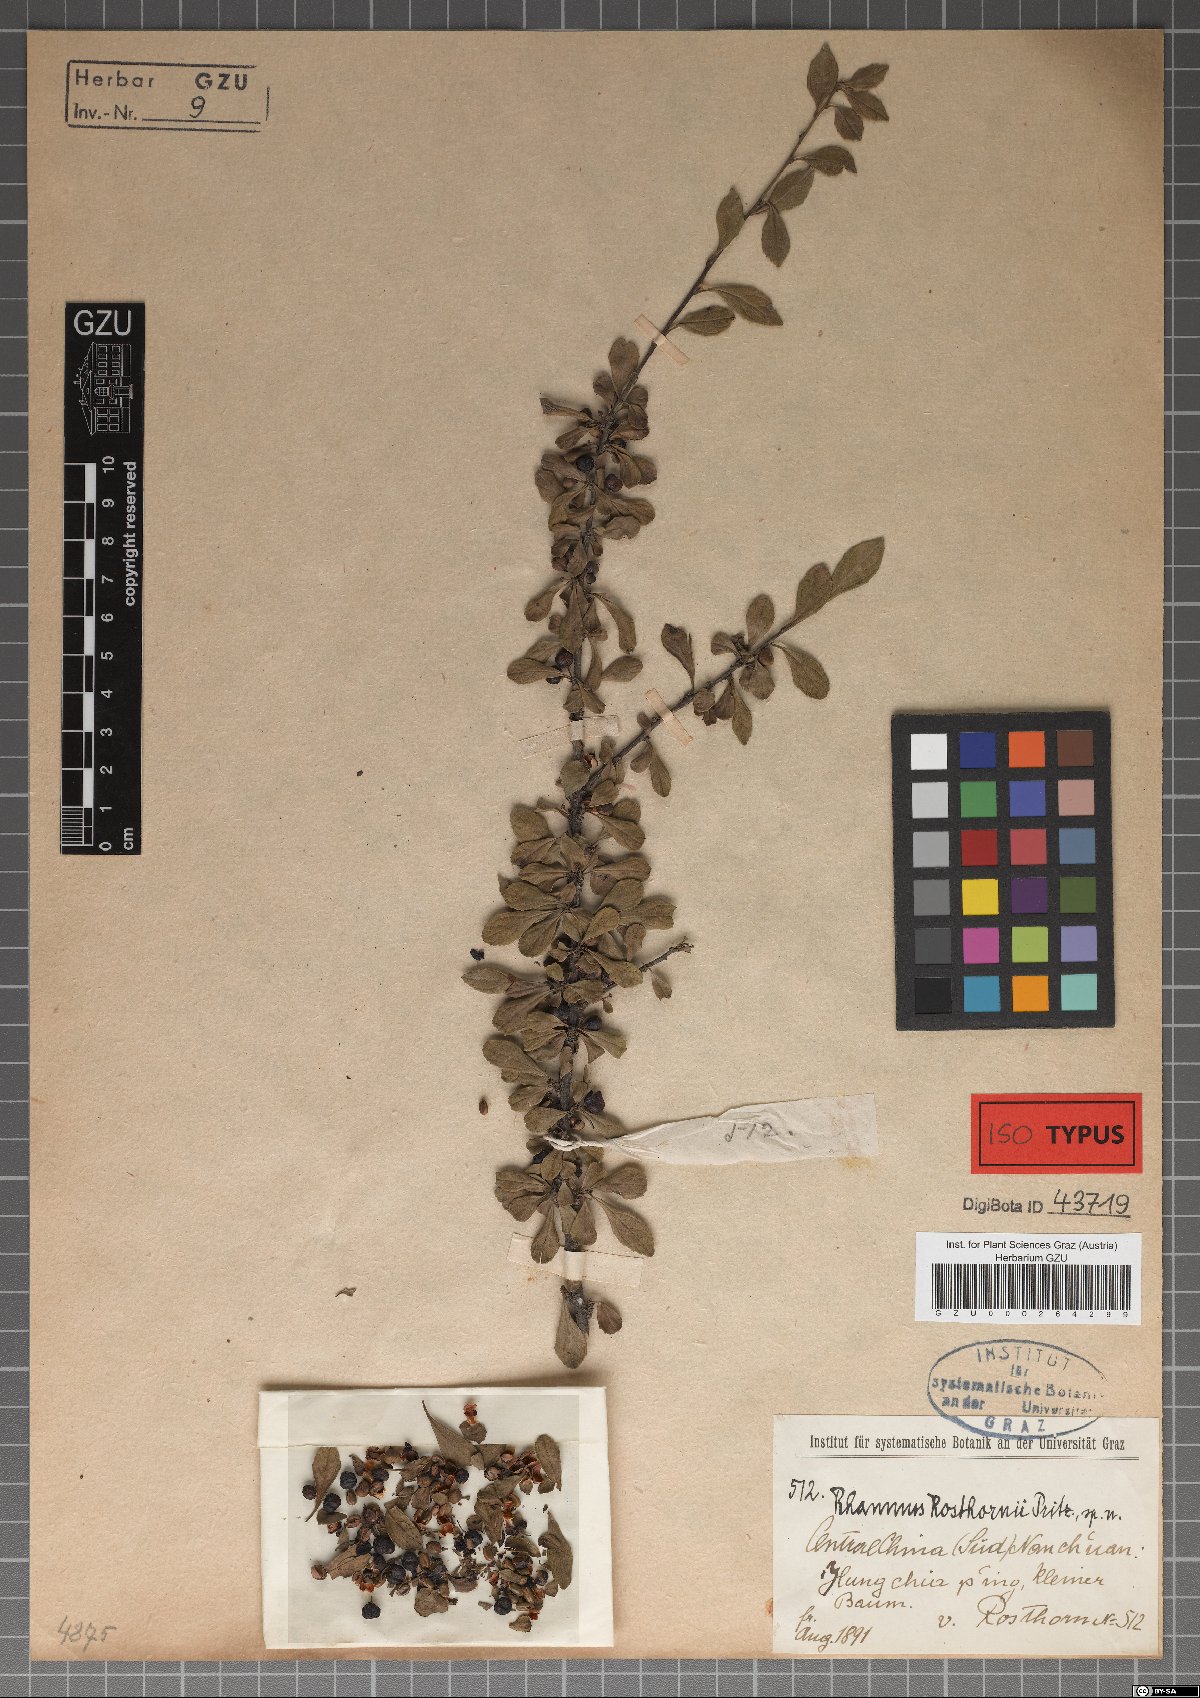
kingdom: Plantae
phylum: Tracheophyta
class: Magnoliopsida
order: Rosales
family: Rhamnaceae
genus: Rhamnus
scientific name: Rhamnus rosthornii
